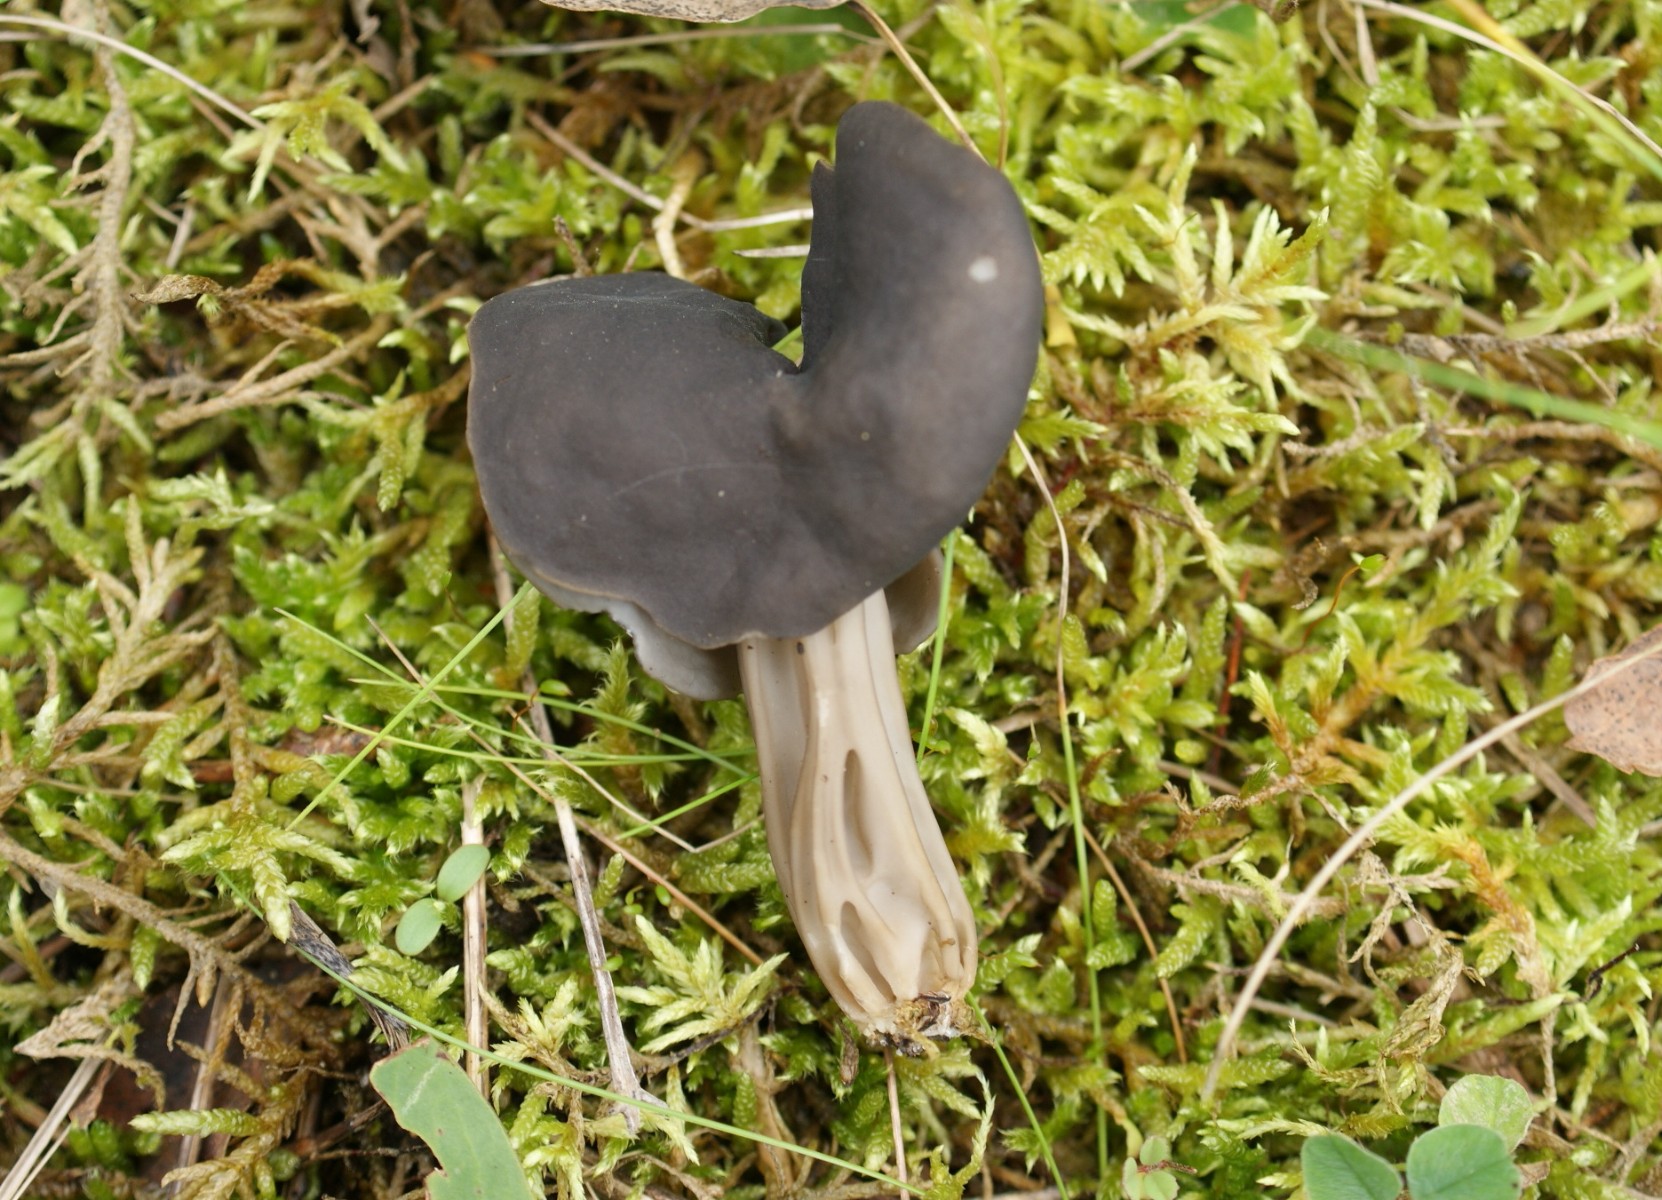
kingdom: Fungi
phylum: Ascomycota
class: Pezizomycetes
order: Pezizales
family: Helvellaceae
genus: Helvella
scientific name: Helvella lacunosa
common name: grubet foldhat
